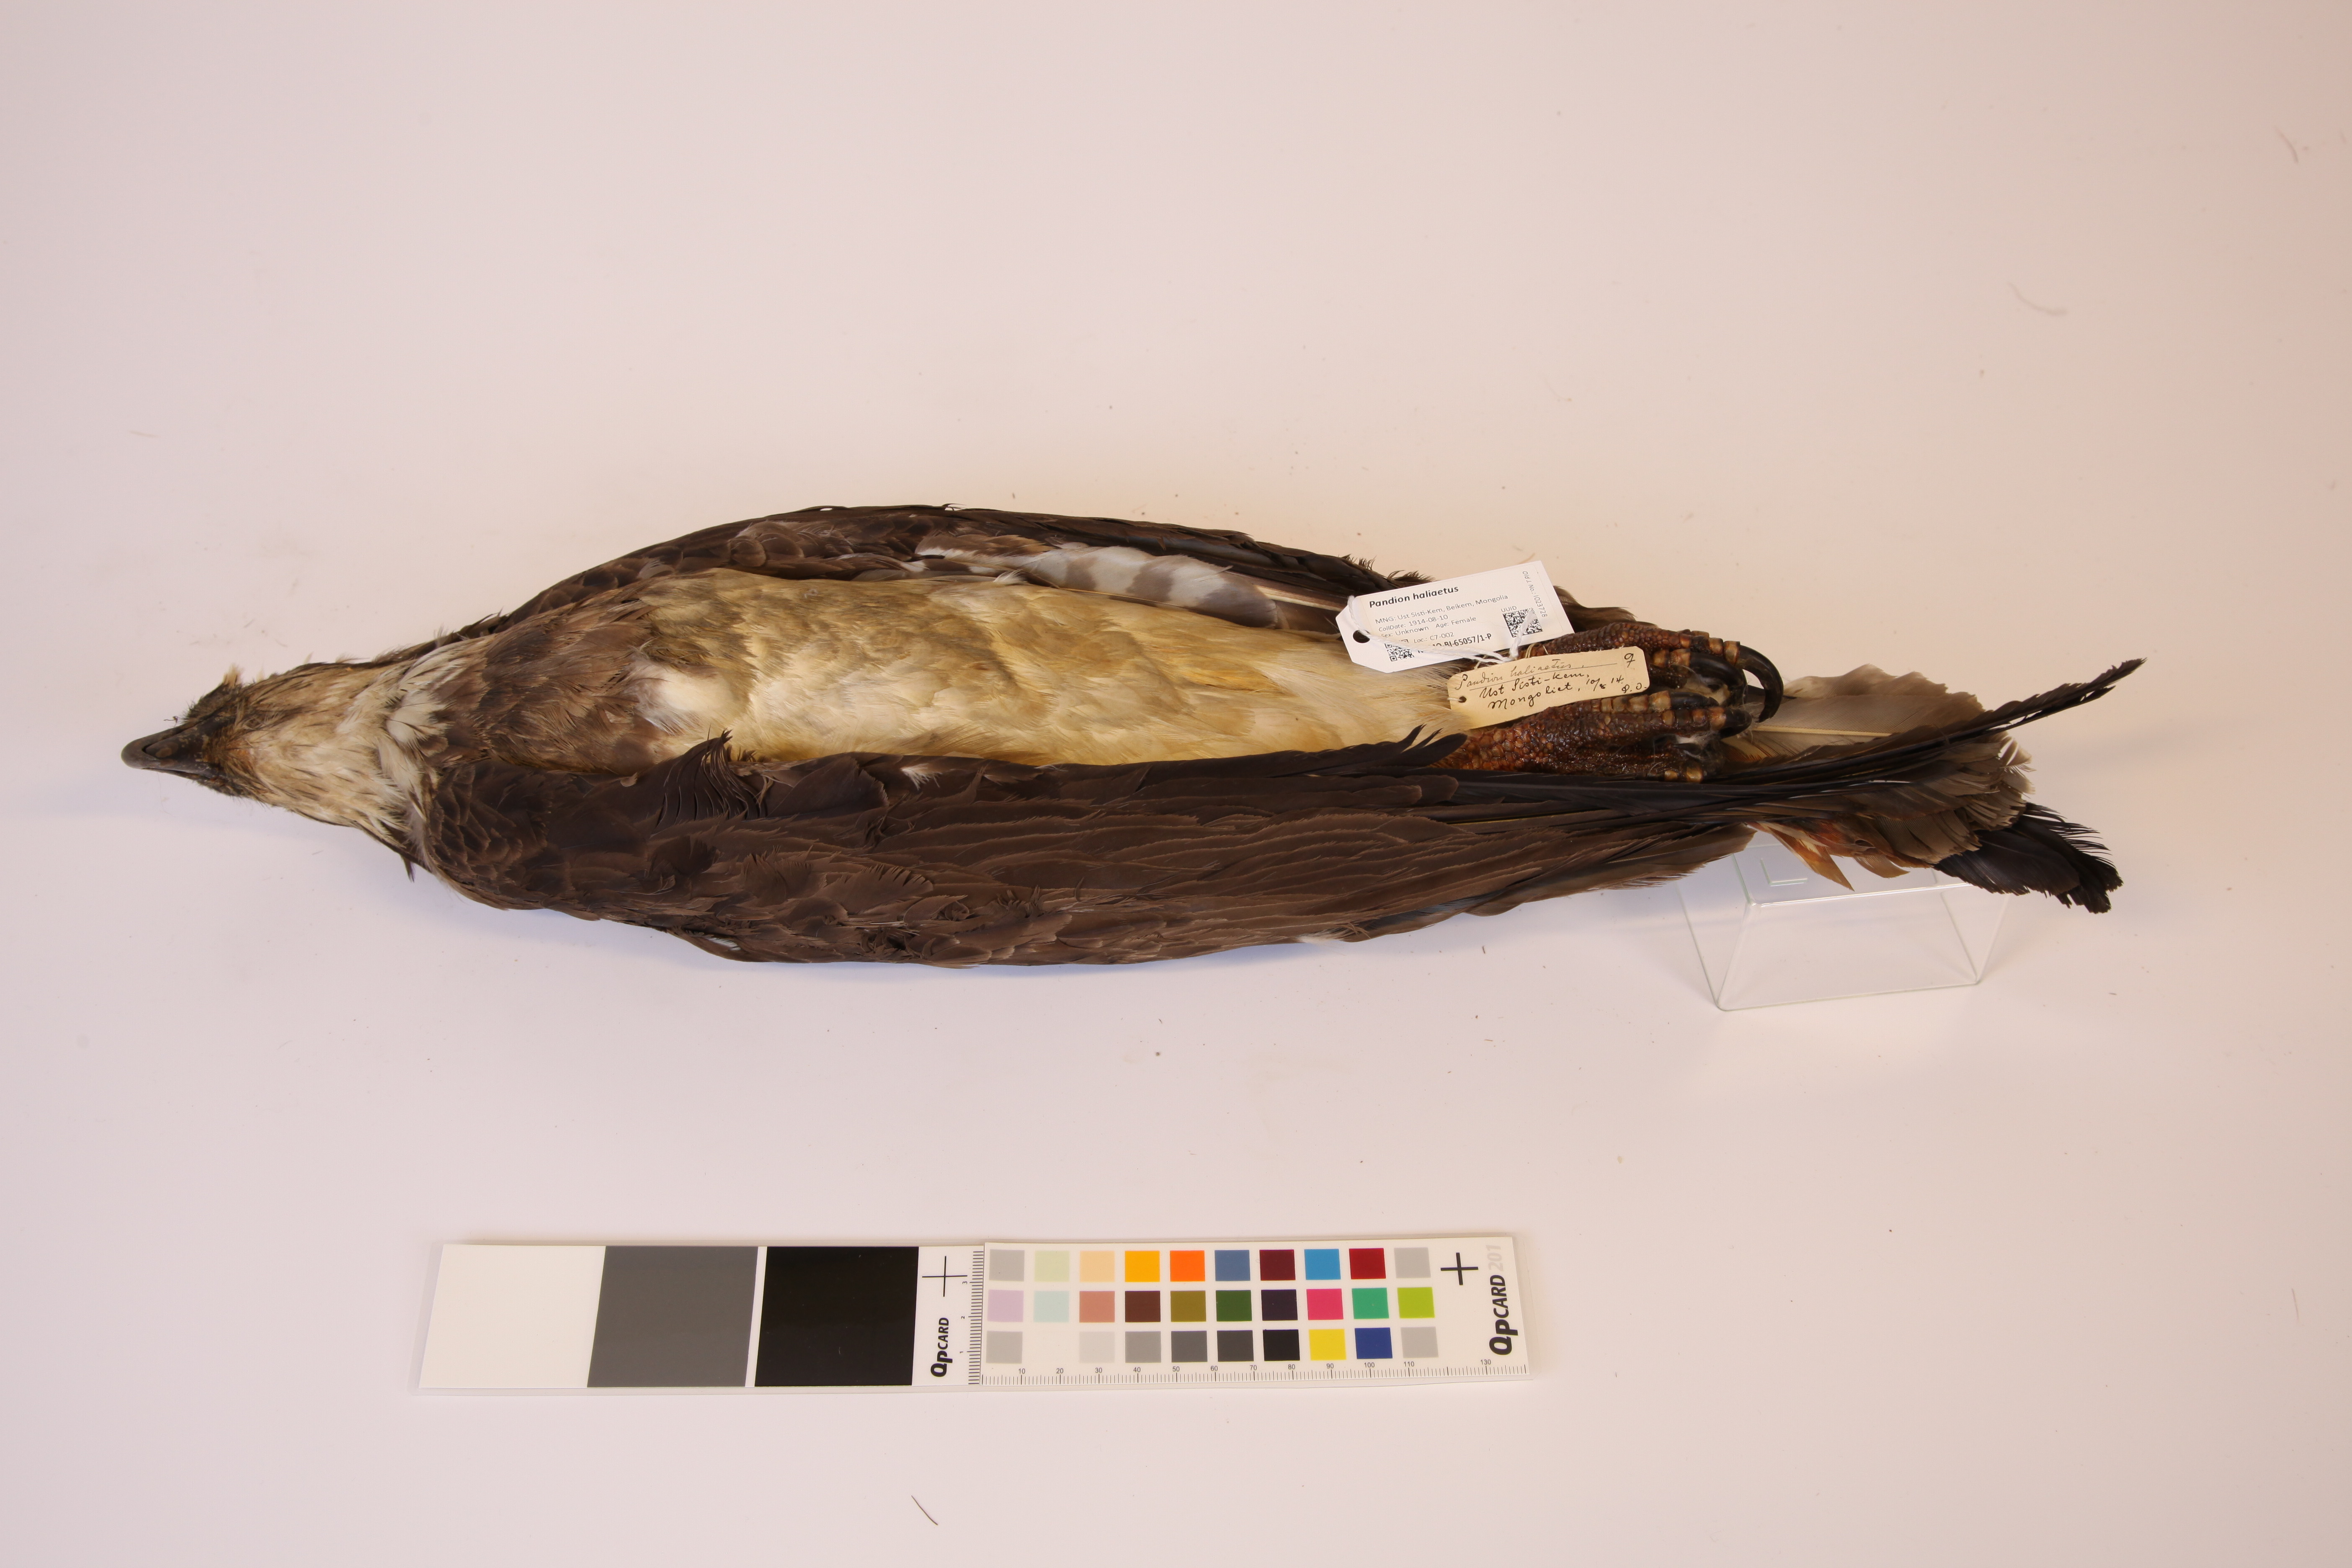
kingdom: Animalia
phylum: Chordata
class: Aves
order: Accipitriformes
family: Pandionidae
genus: Pandion
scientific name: Pandion haliaetus
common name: Osprey
